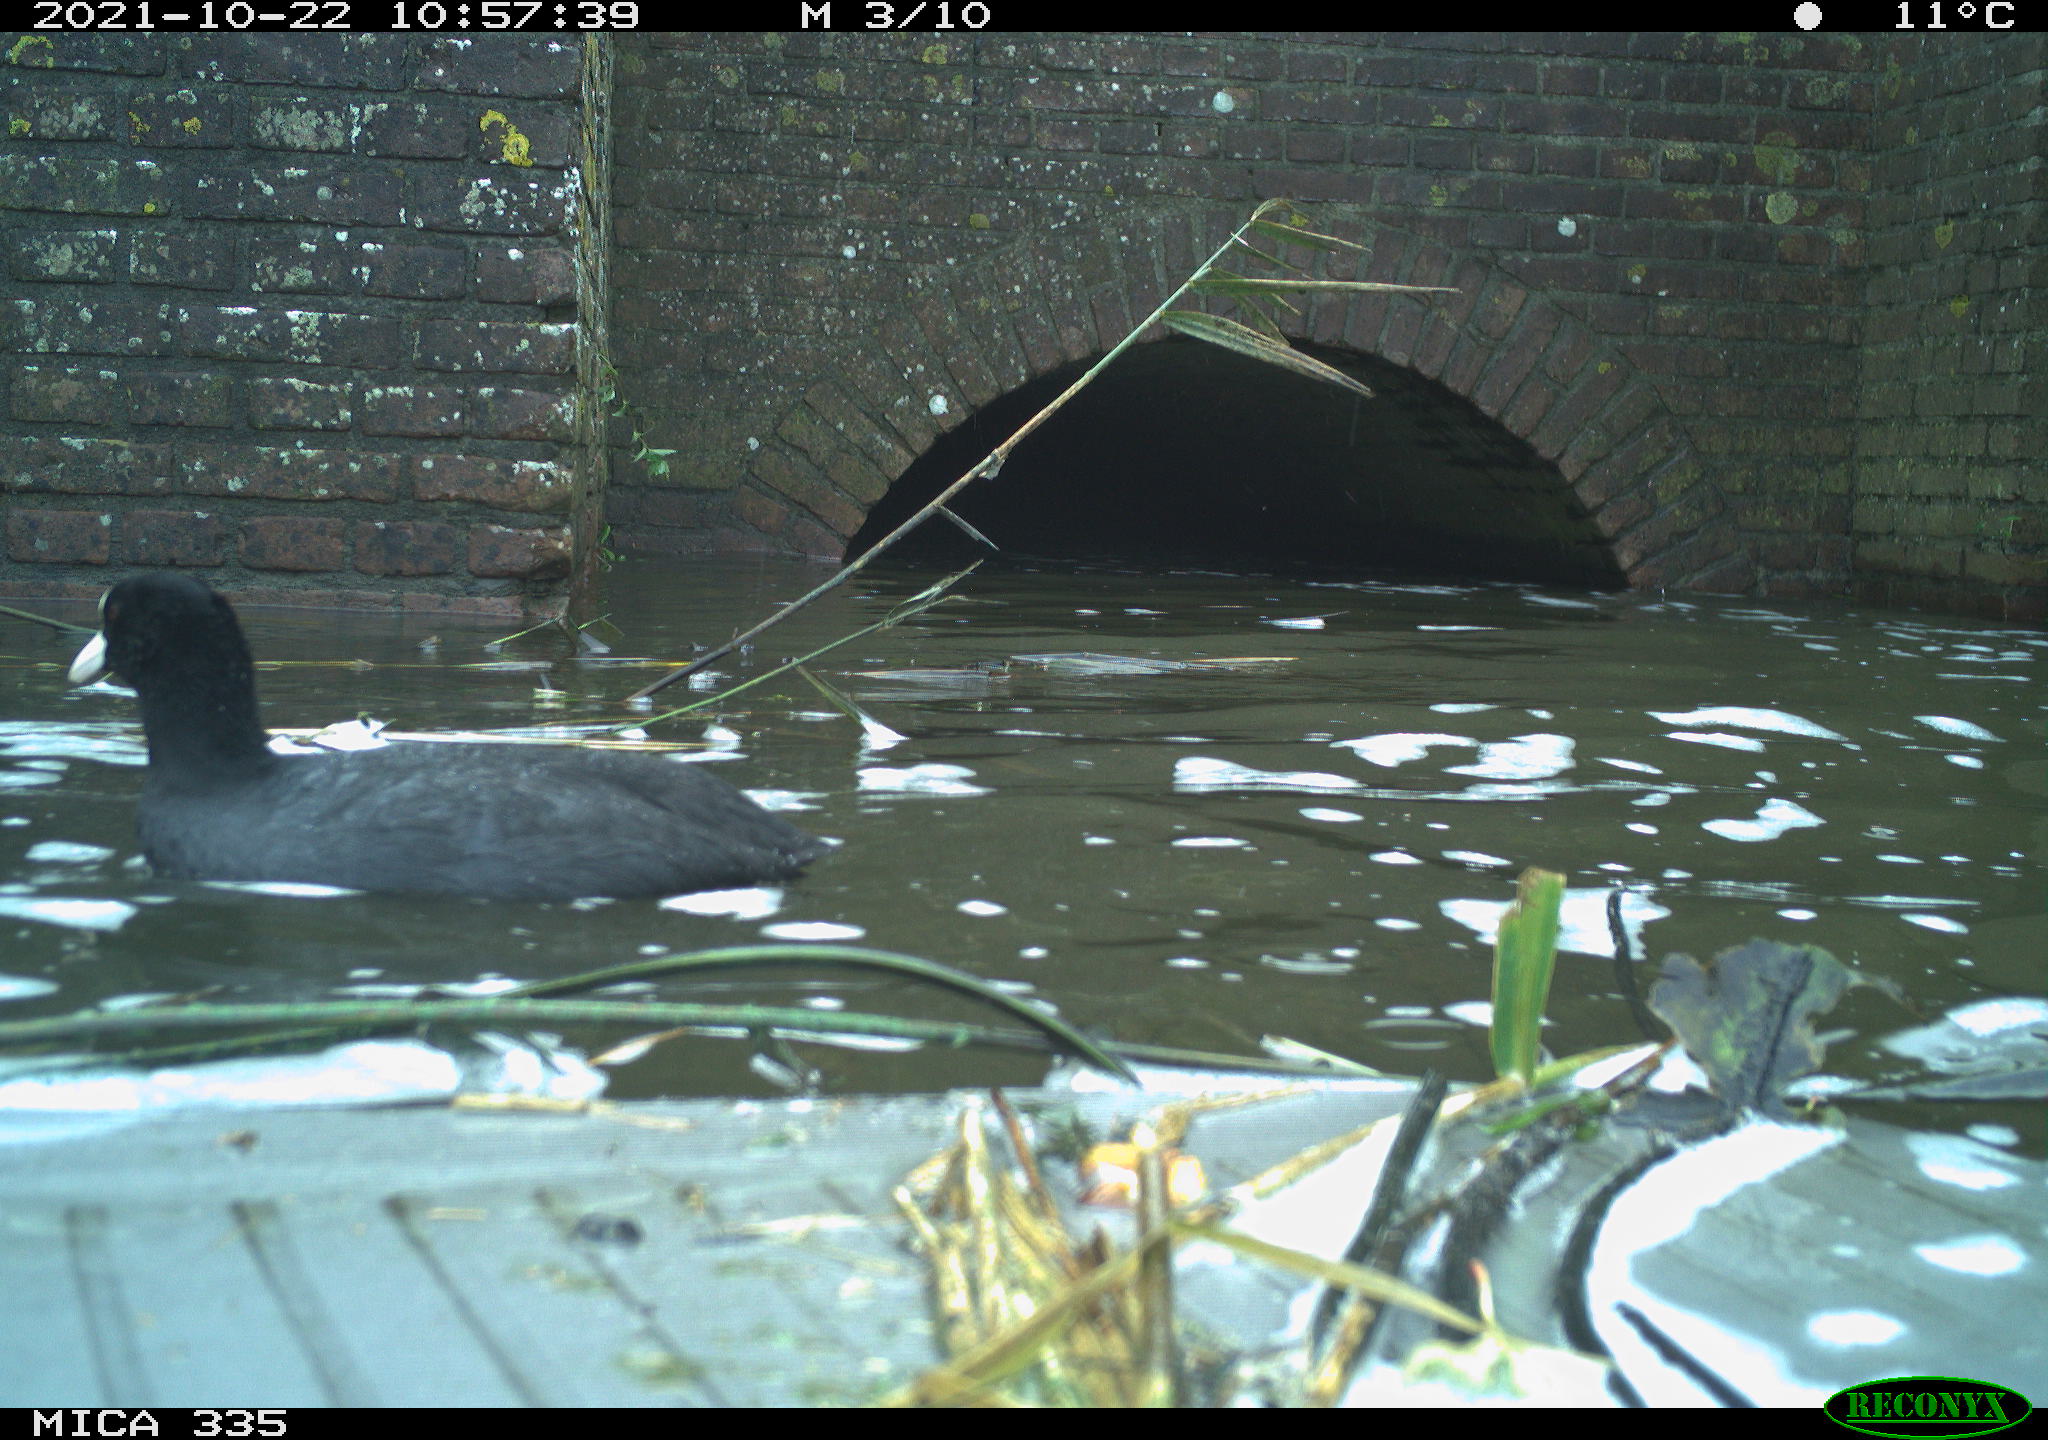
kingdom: Animalia
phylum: Chordata
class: Aves
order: Gruiformes
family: Rallidae
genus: Fulica
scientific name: Fulica atra
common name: Eurasian coot
